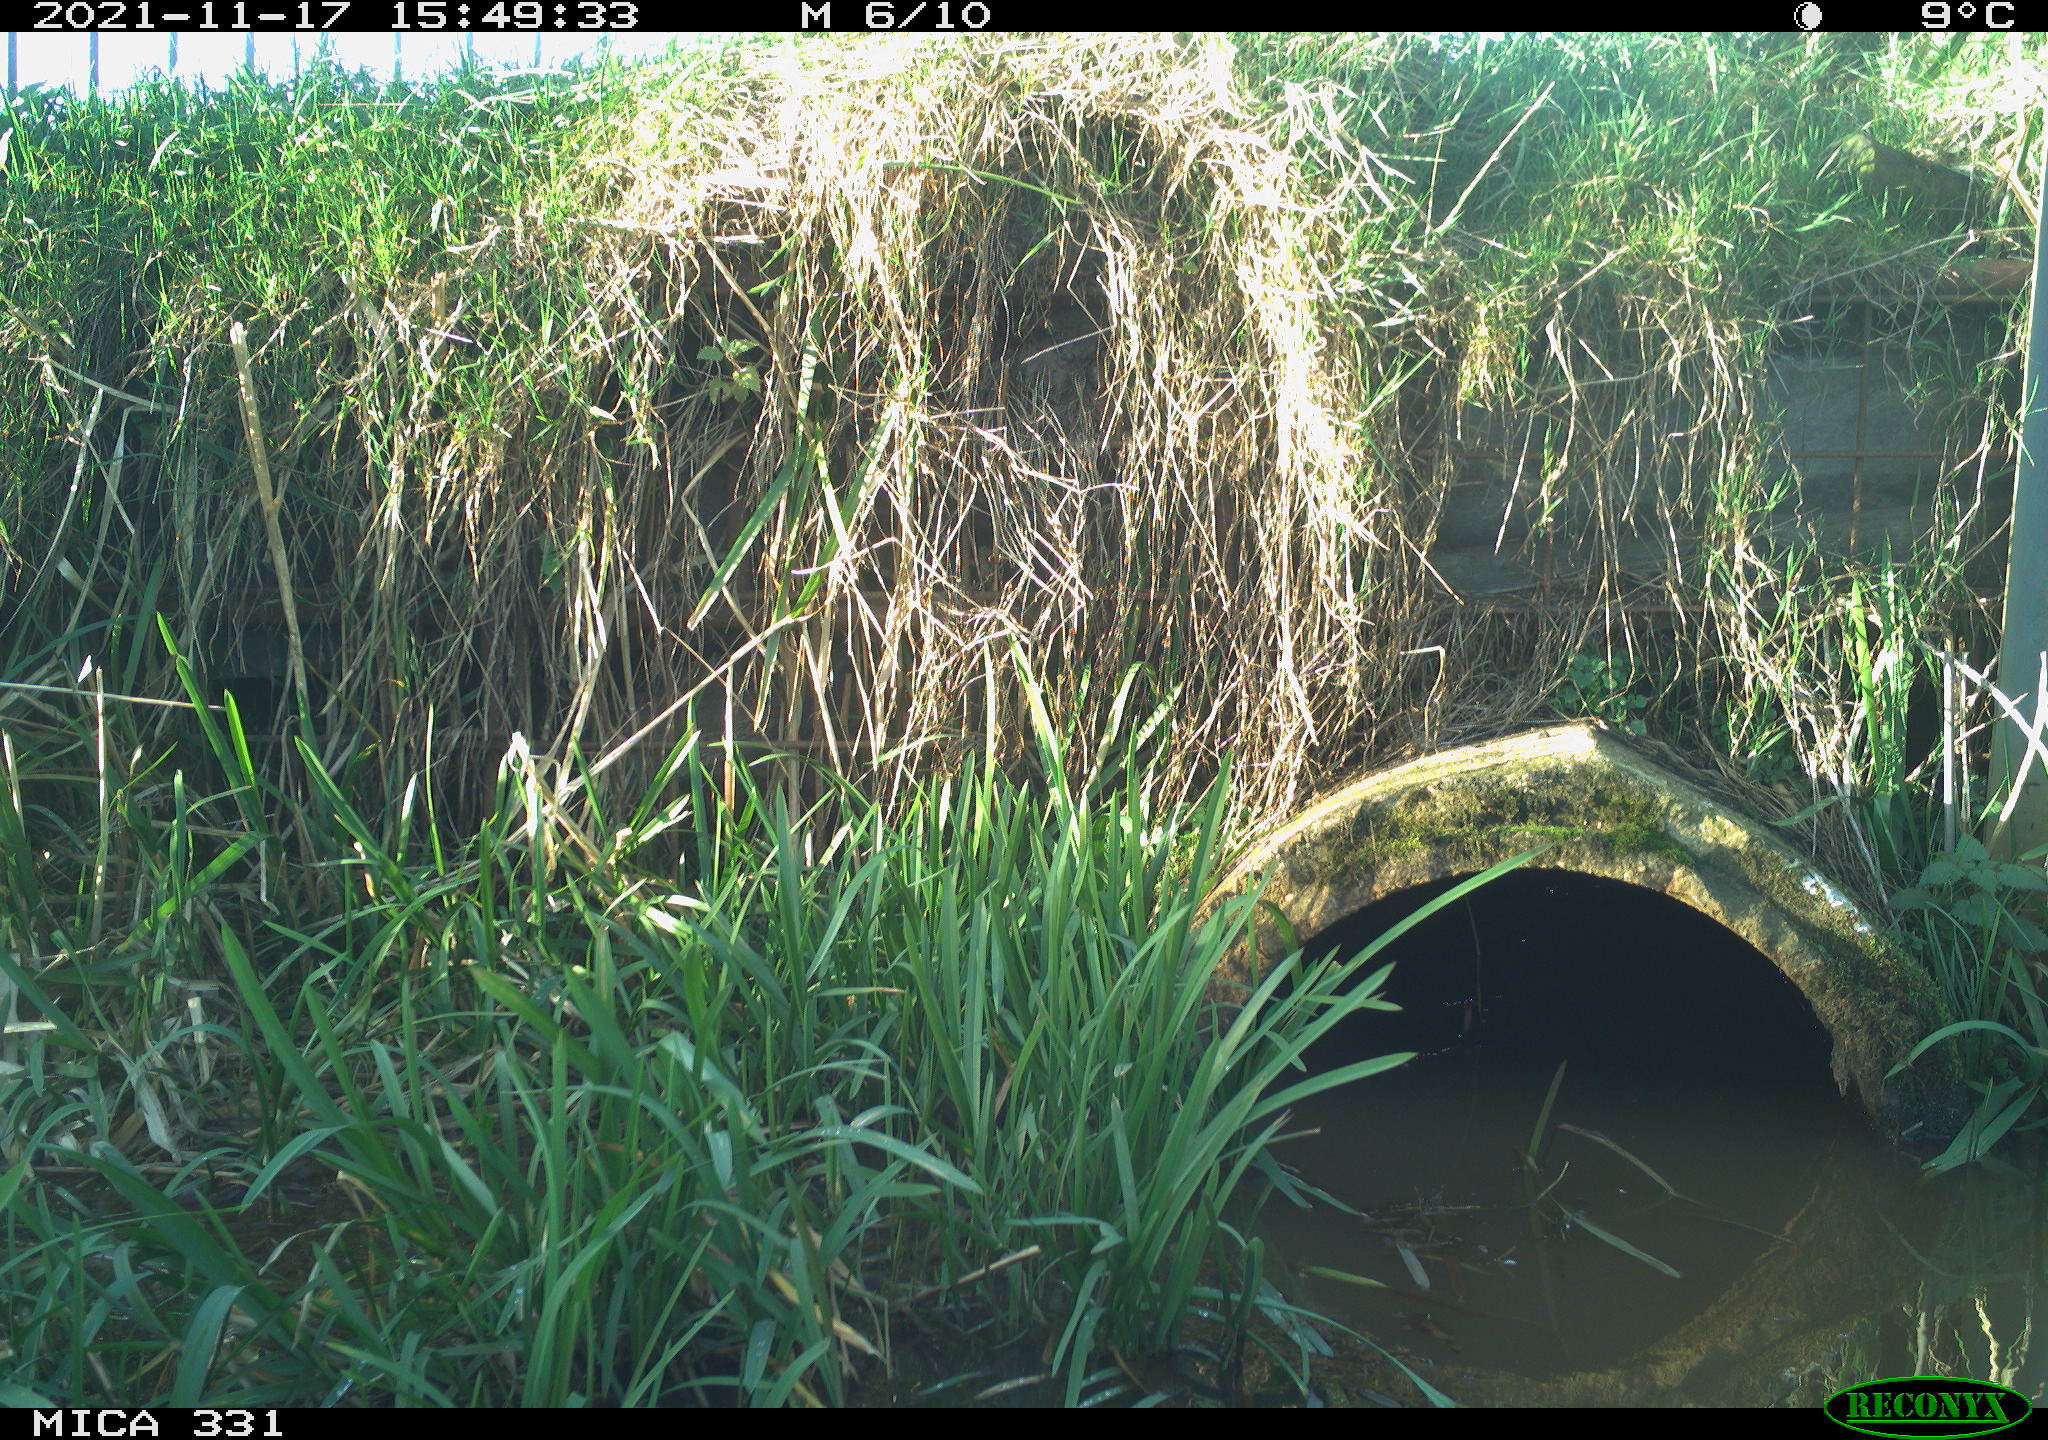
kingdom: Animalia
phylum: Chordata
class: Aves
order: Gruiformes
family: Rallidae
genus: Gallinula
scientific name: Gallinula chloropus
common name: Common moorhen
